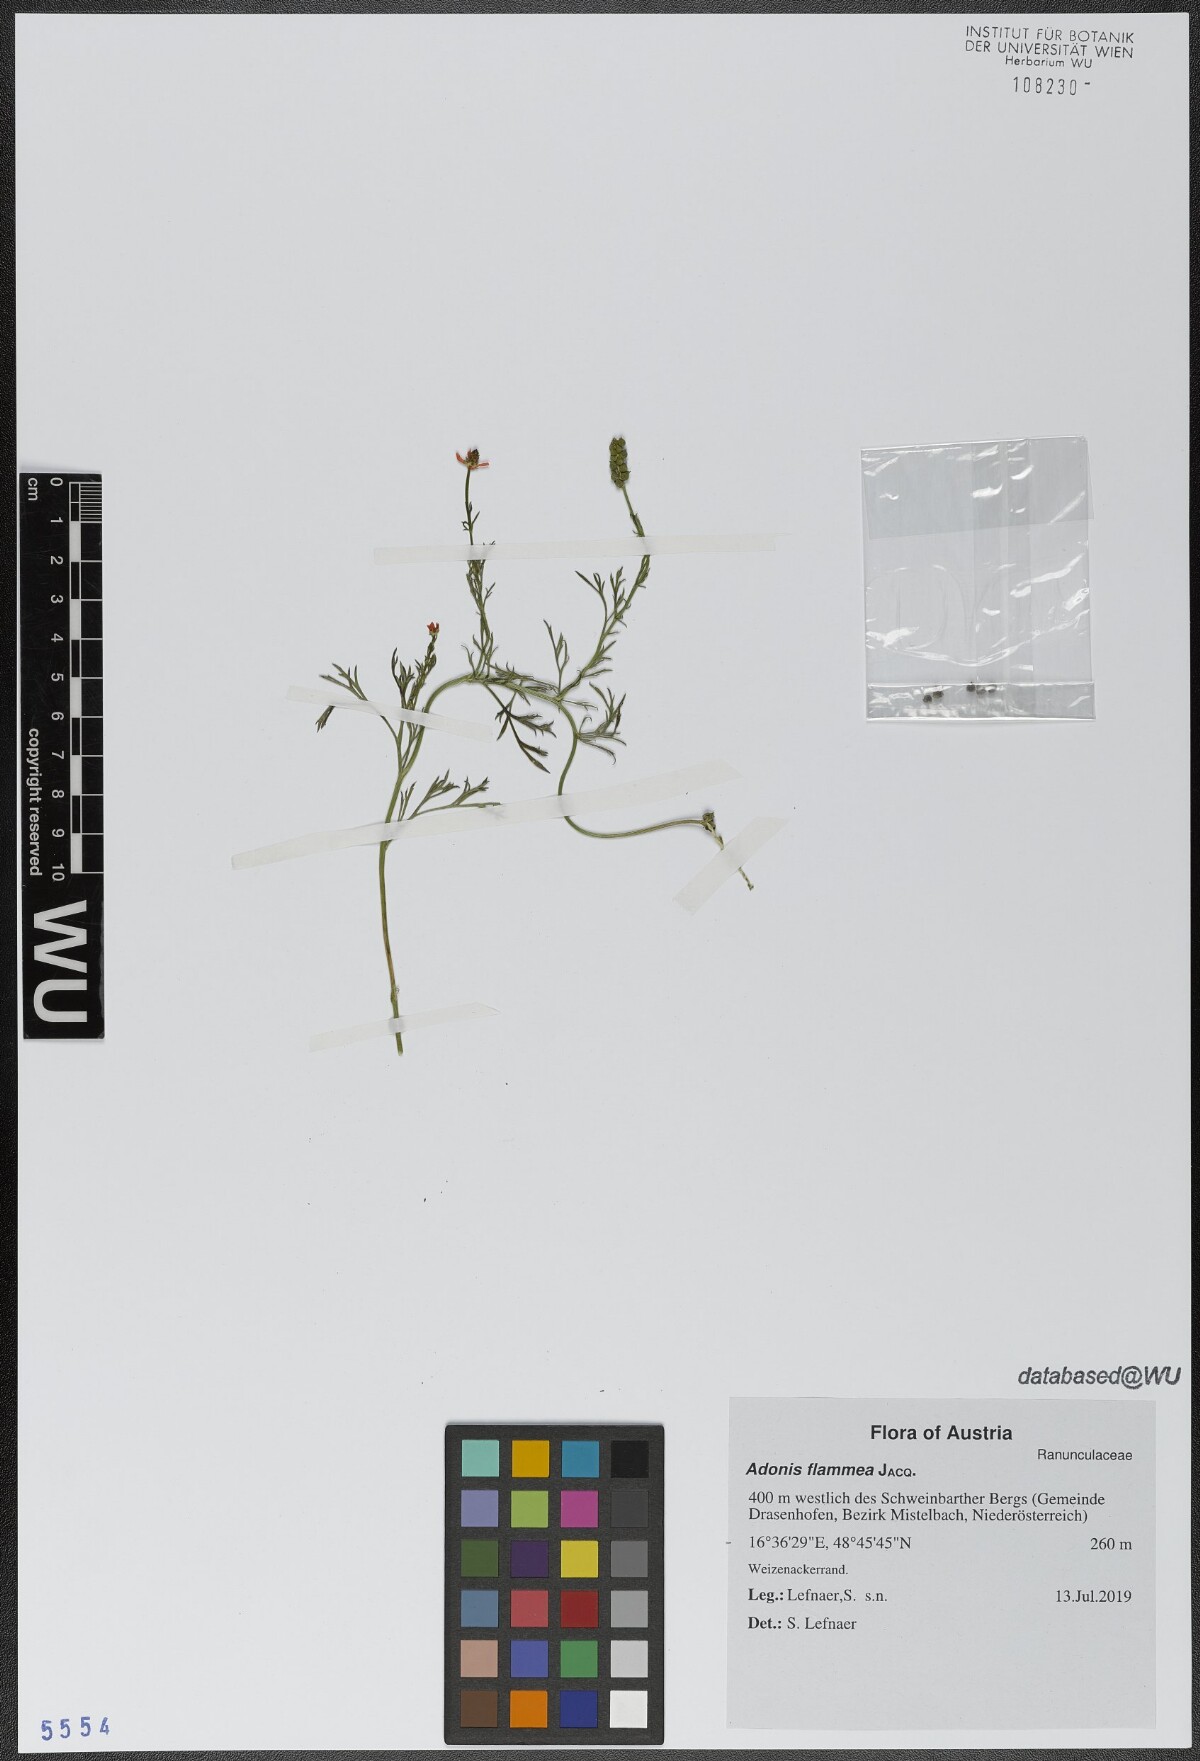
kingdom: Plantae
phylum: Tracheophyta
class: Magnoliopsida
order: Ranunculales
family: Ranunculaceae
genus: Adonis
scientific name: Adonis flammea
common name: Large pheasant's-eye
